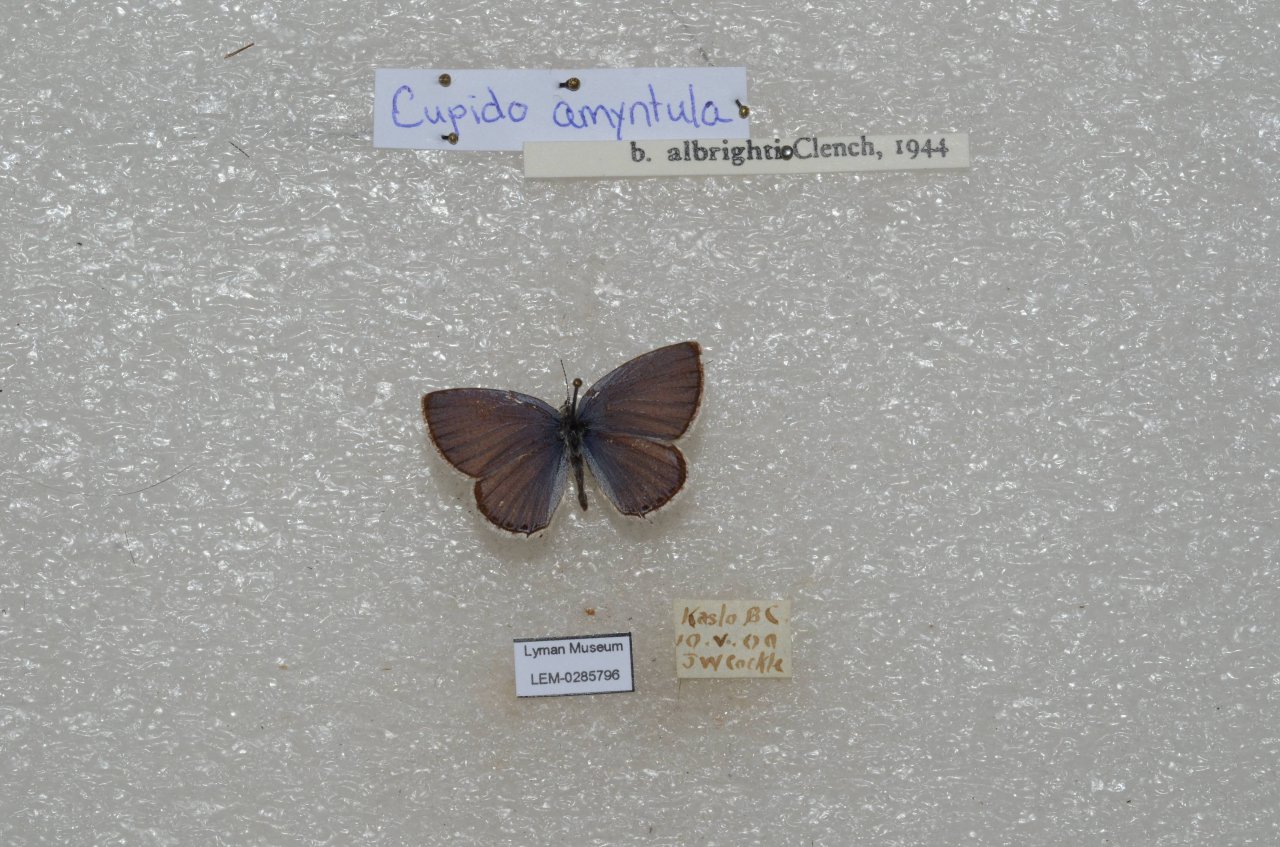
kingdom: Animalia
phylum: Arthropoda
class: Insecta
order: Lepidoptera
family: Lycaenidae
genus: Elkalyce
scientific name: Elkalyce amyntula
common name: Western Tailed-Blue
